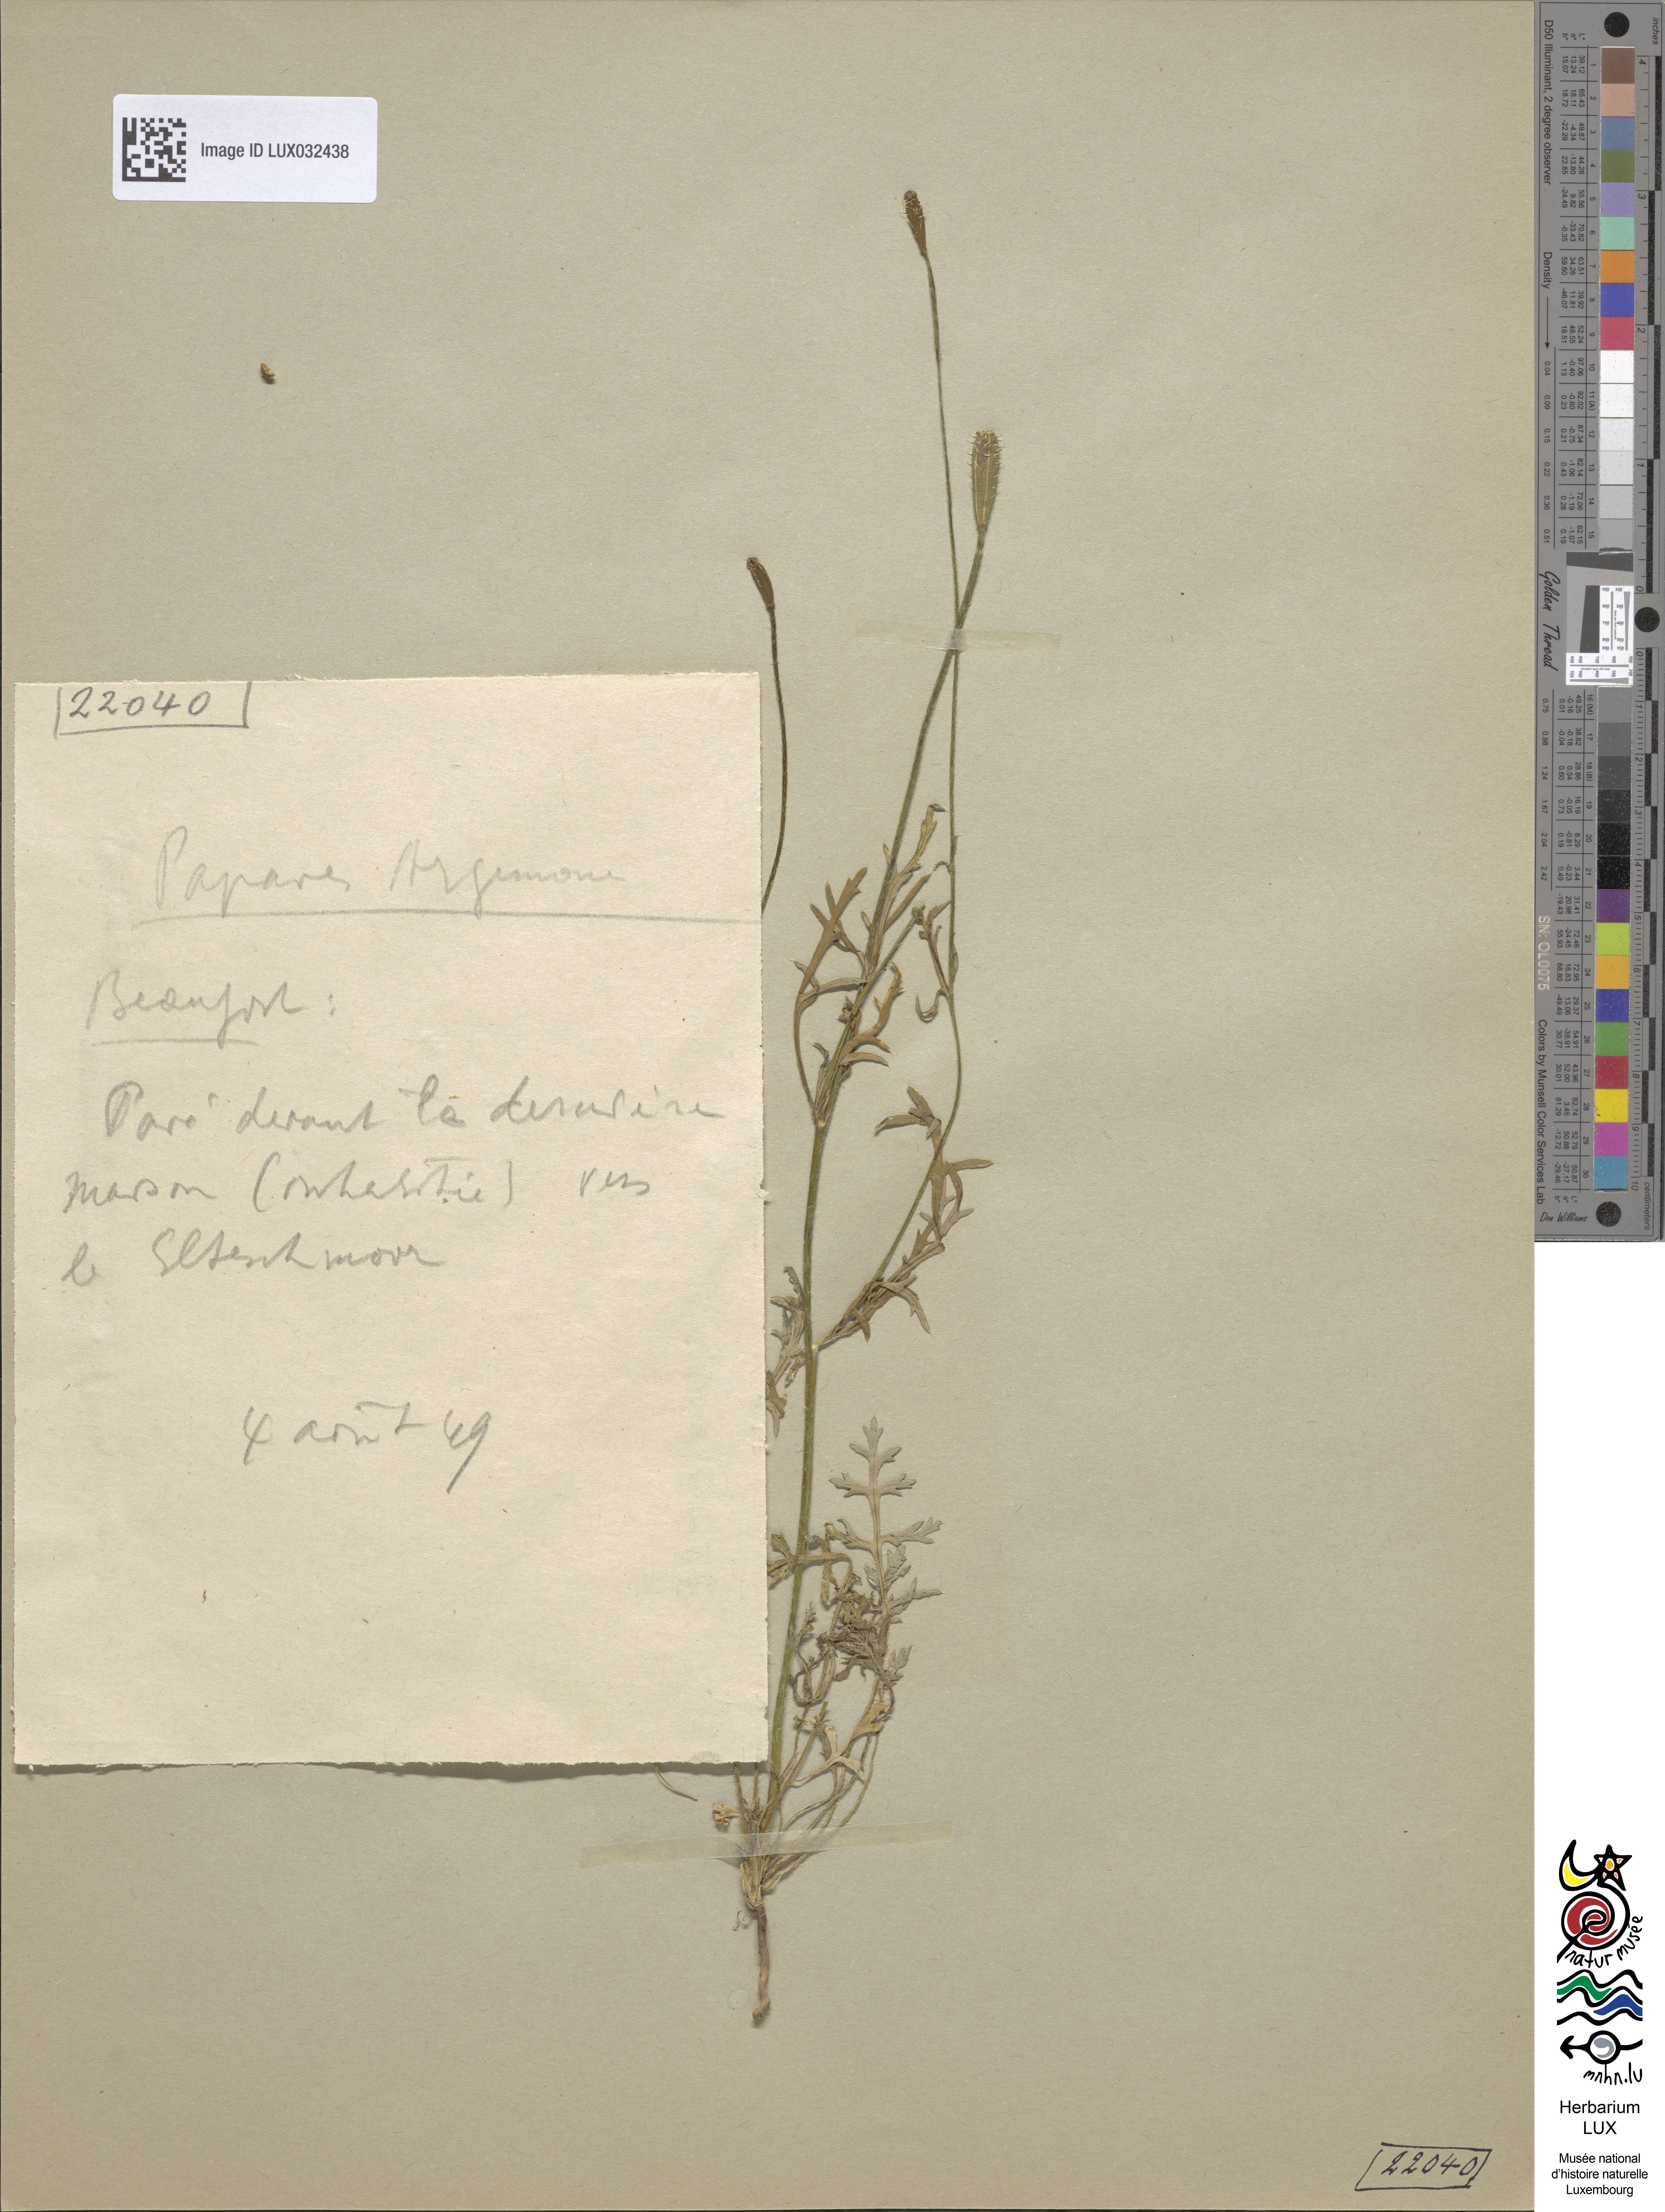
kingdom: Plantae
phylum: Tracheophyta
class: Magnoliopsida
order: Ranunculales
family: Papaveraceae
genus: Roemeria
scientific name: Roemeria argemone
